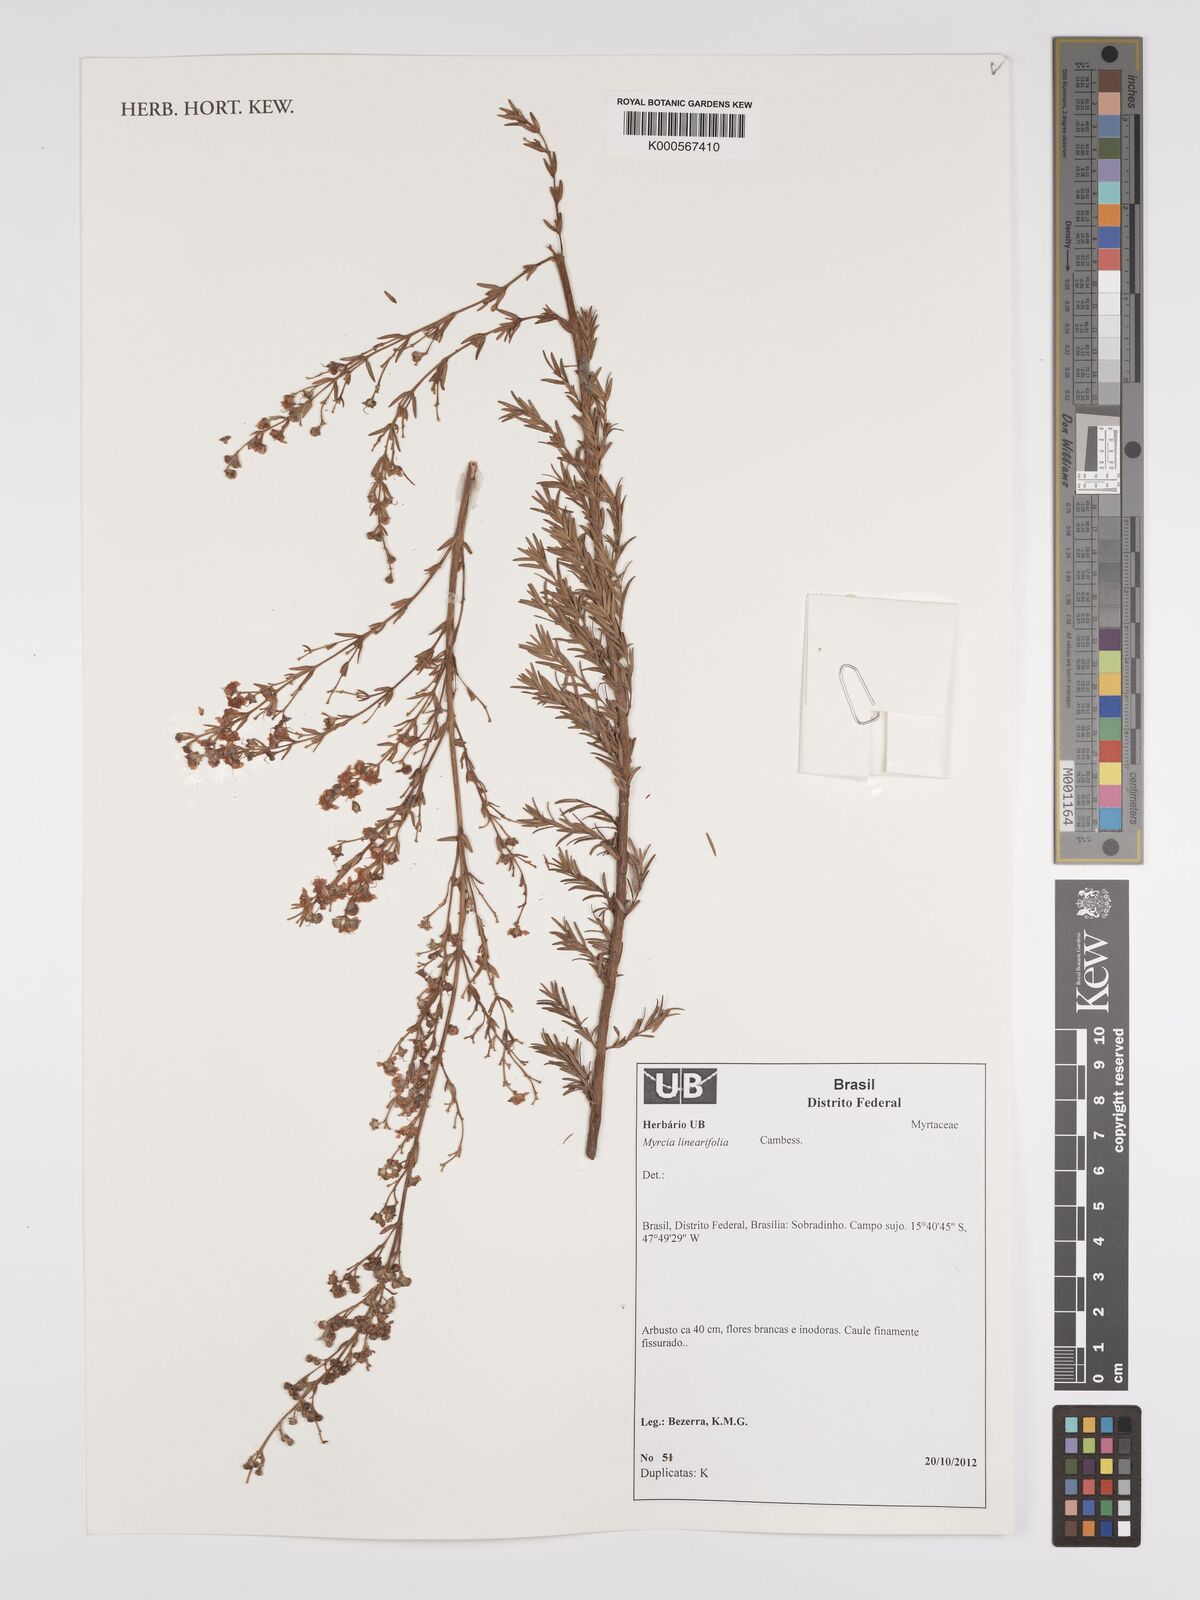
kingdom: Plantae
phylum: Tracheophyta
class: Magnoliopsida
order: Myrtales
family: Myrtaceae
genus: Myrcia
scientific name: Myrcia linearifolia
